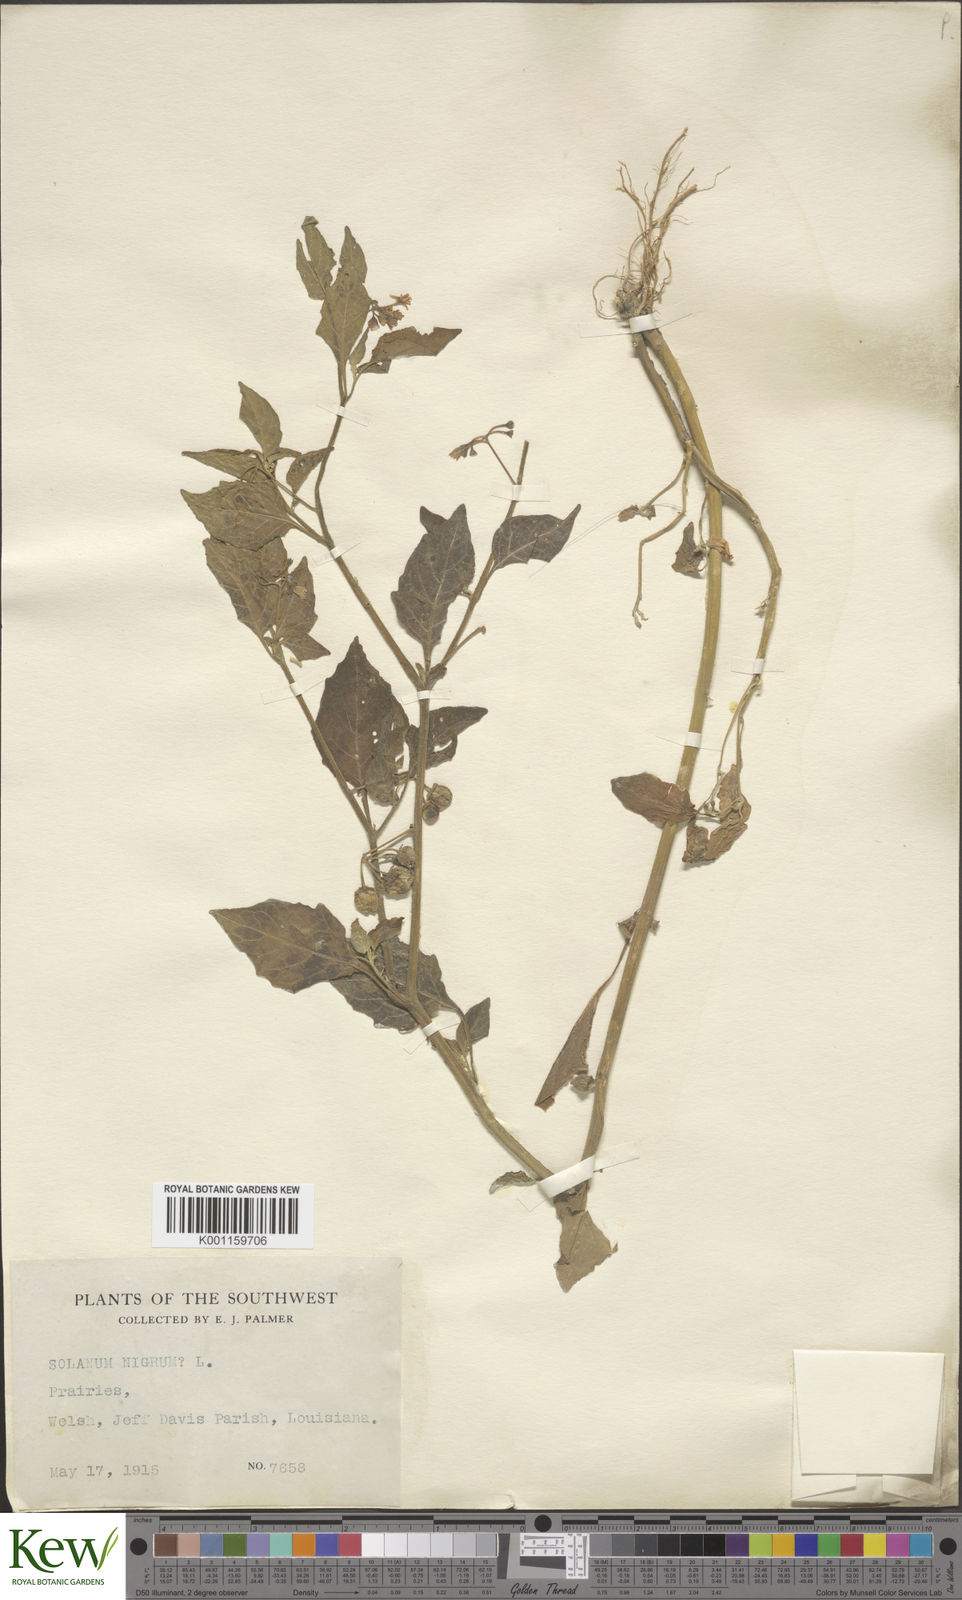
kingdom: Plantae
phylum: Tracheophyta
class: Magnoliopsida
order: Solanales
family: Solanaceae
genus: Solanum
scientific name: Solanum nigrescens
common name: Divine nightshade
